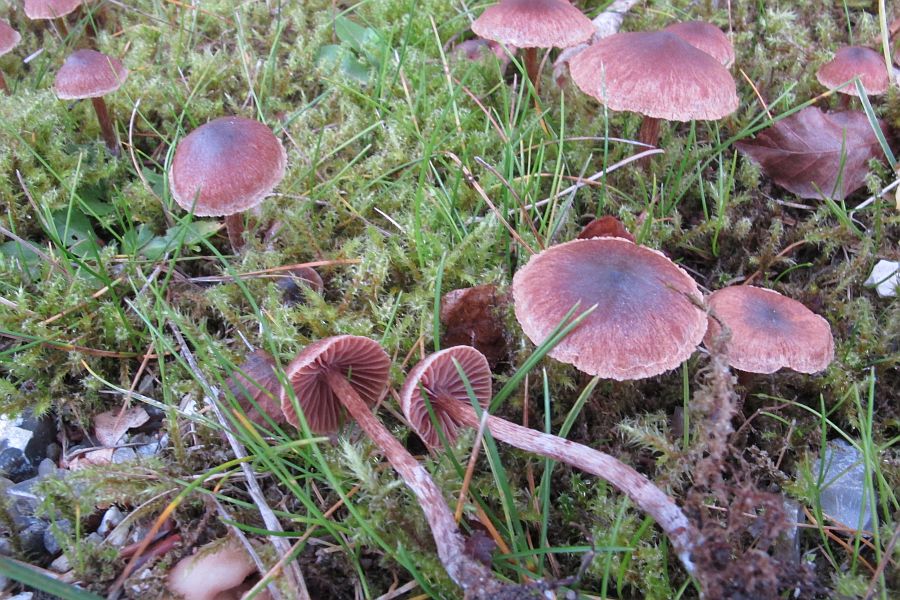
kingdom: Fungi
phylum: Basidiomycota
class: Agaricomycetes
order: Agaricales
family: Cortinariaceae
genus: Cortinarius
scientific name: Cortinarius desertorum
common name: skær slørhat
